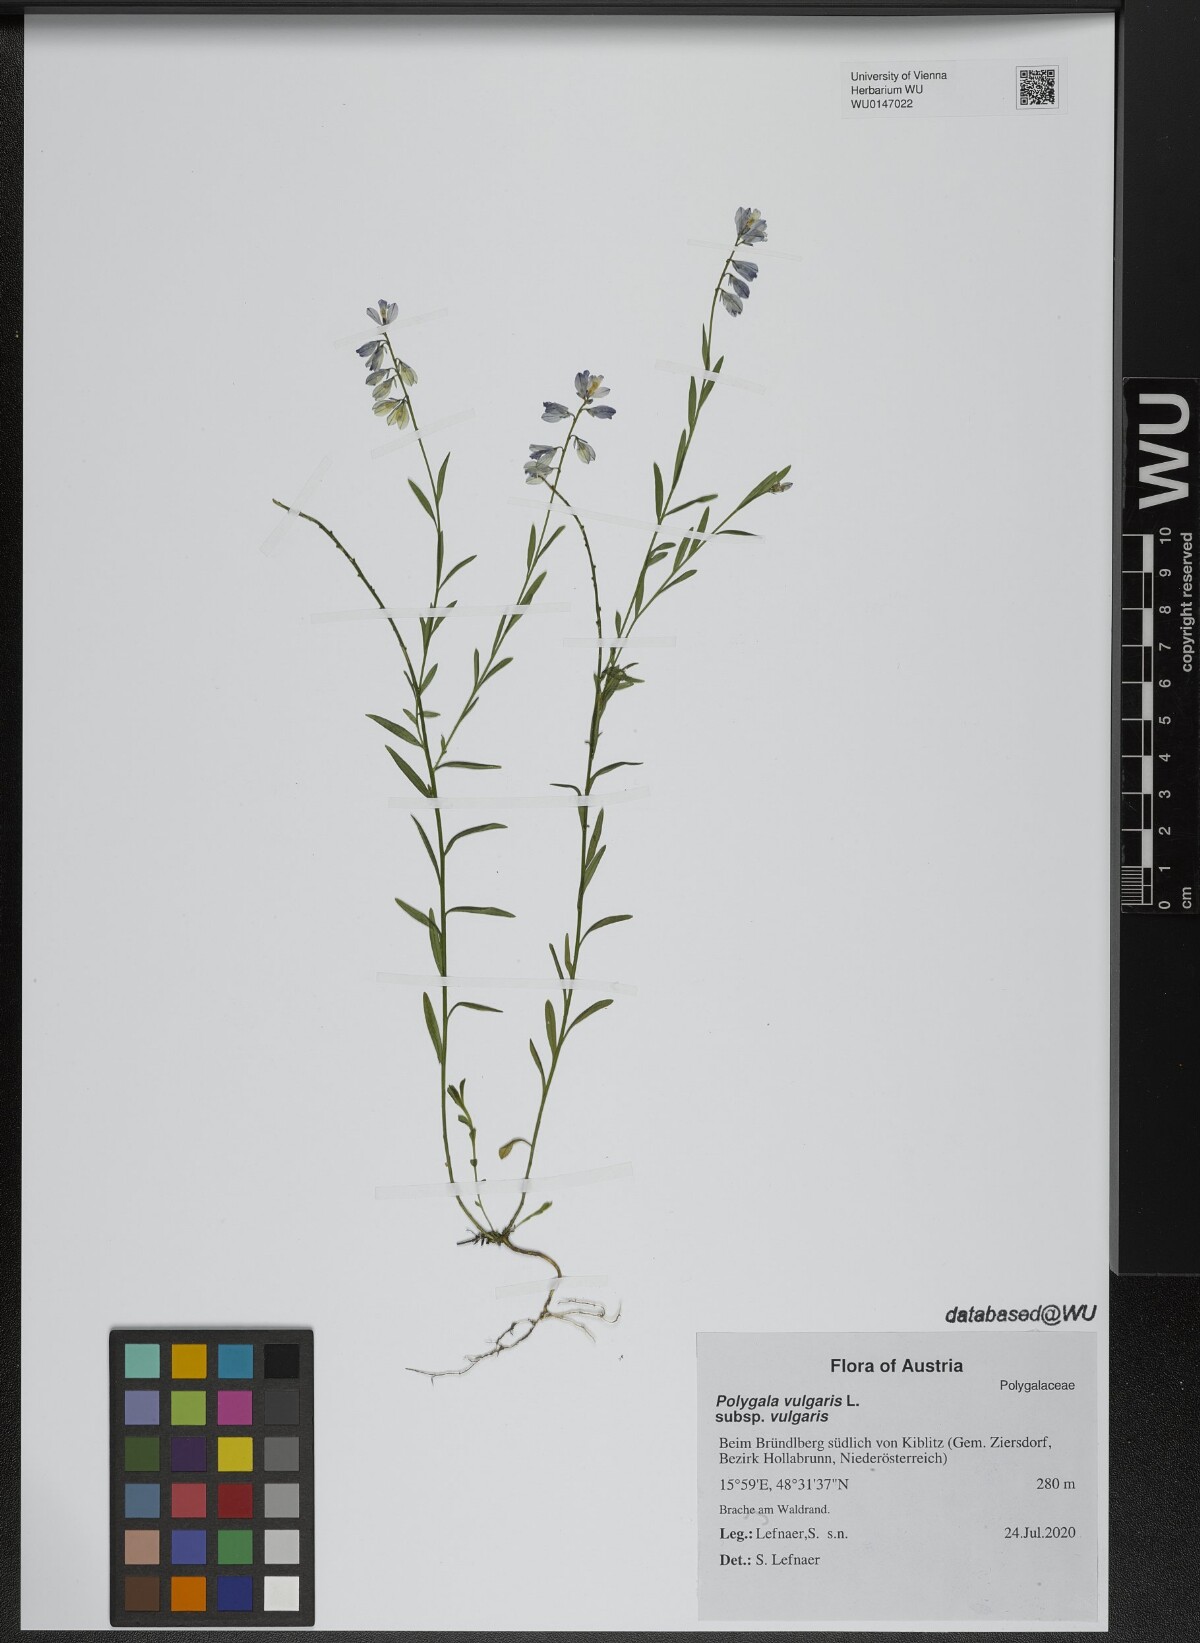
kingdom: Plantae
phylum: Tracheophyta
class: Magnoliopsida
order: Fabales
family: Polygalaceae
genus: Polygala
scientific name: Polygala vulgaris
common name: Common milkwort
